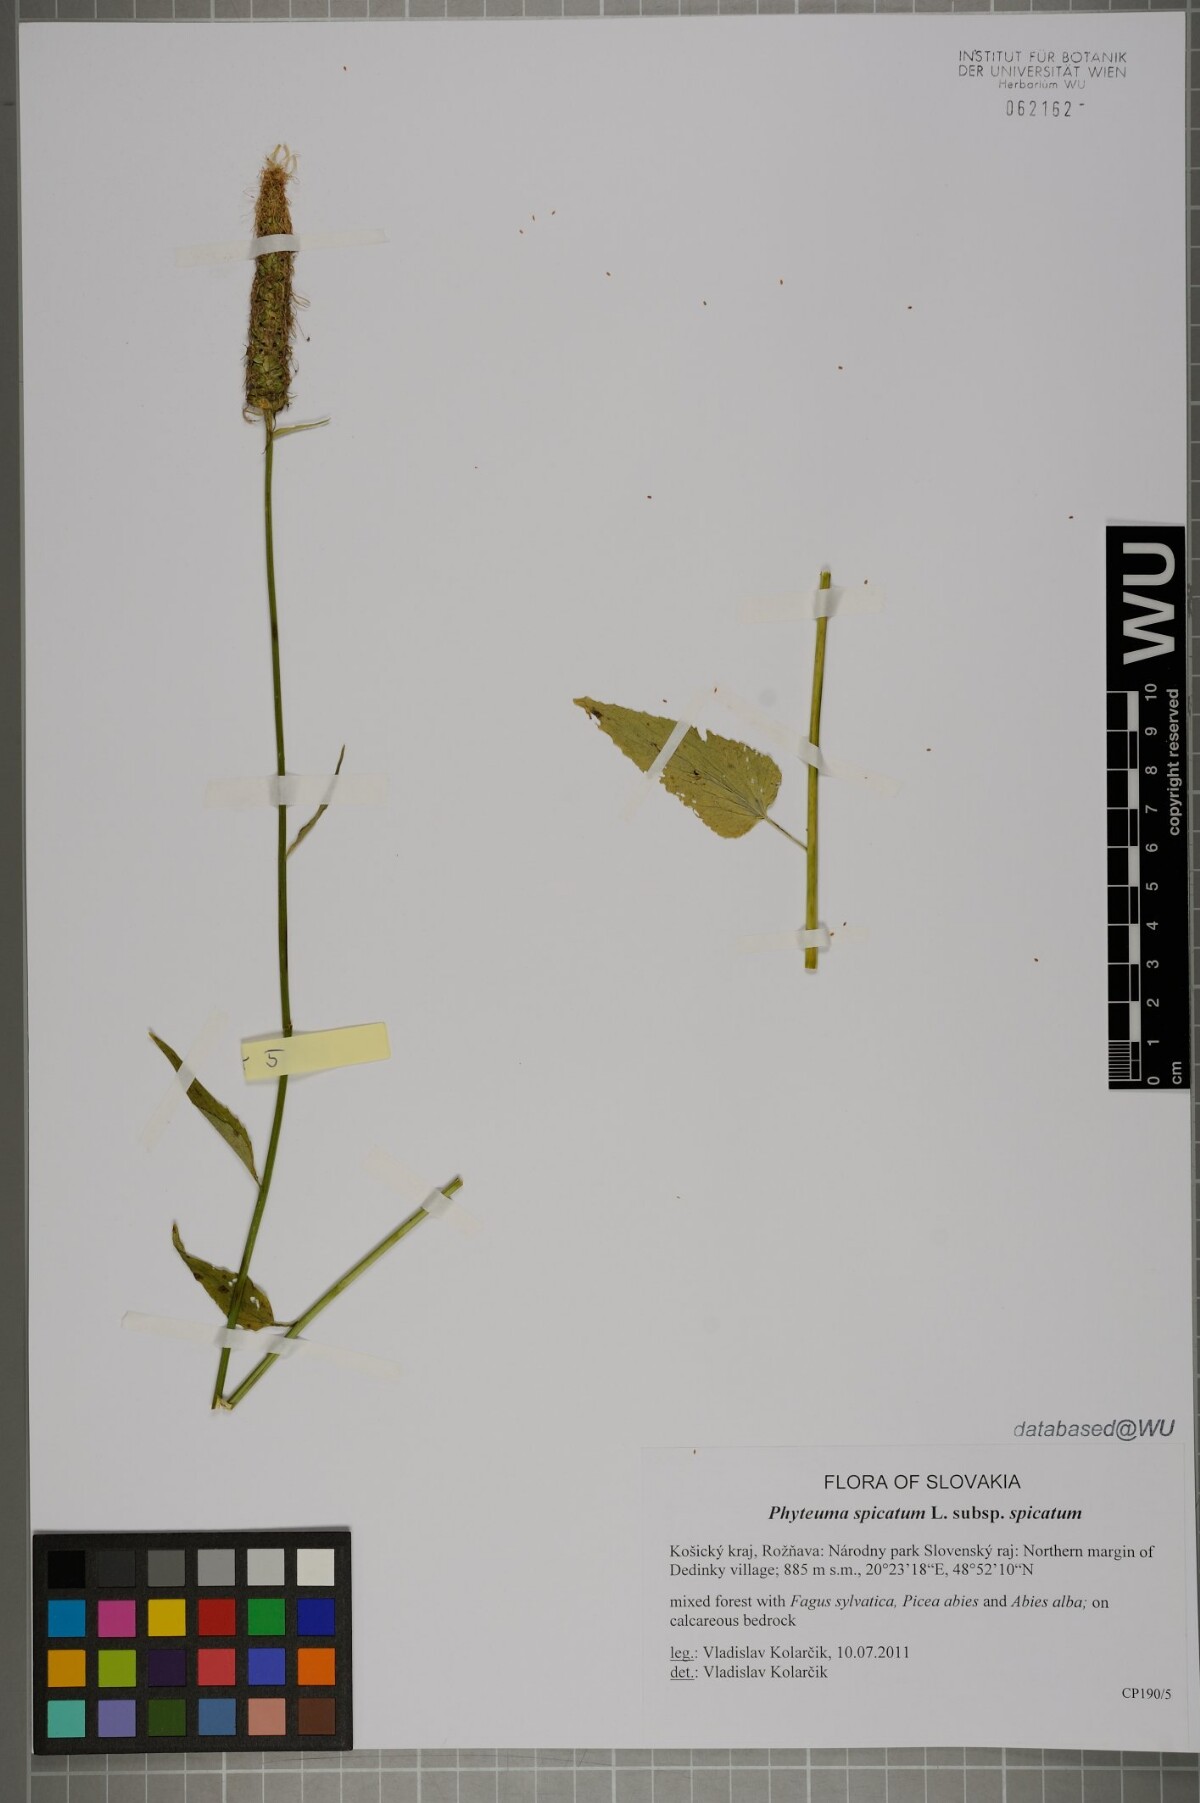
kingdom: Plantae
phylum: Tracheophyta
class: Magnoliopsida
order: Asterales
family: Campanulaceae
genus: Phyteuma
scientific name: Phyteuma spicatum
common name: Spiked rampion
